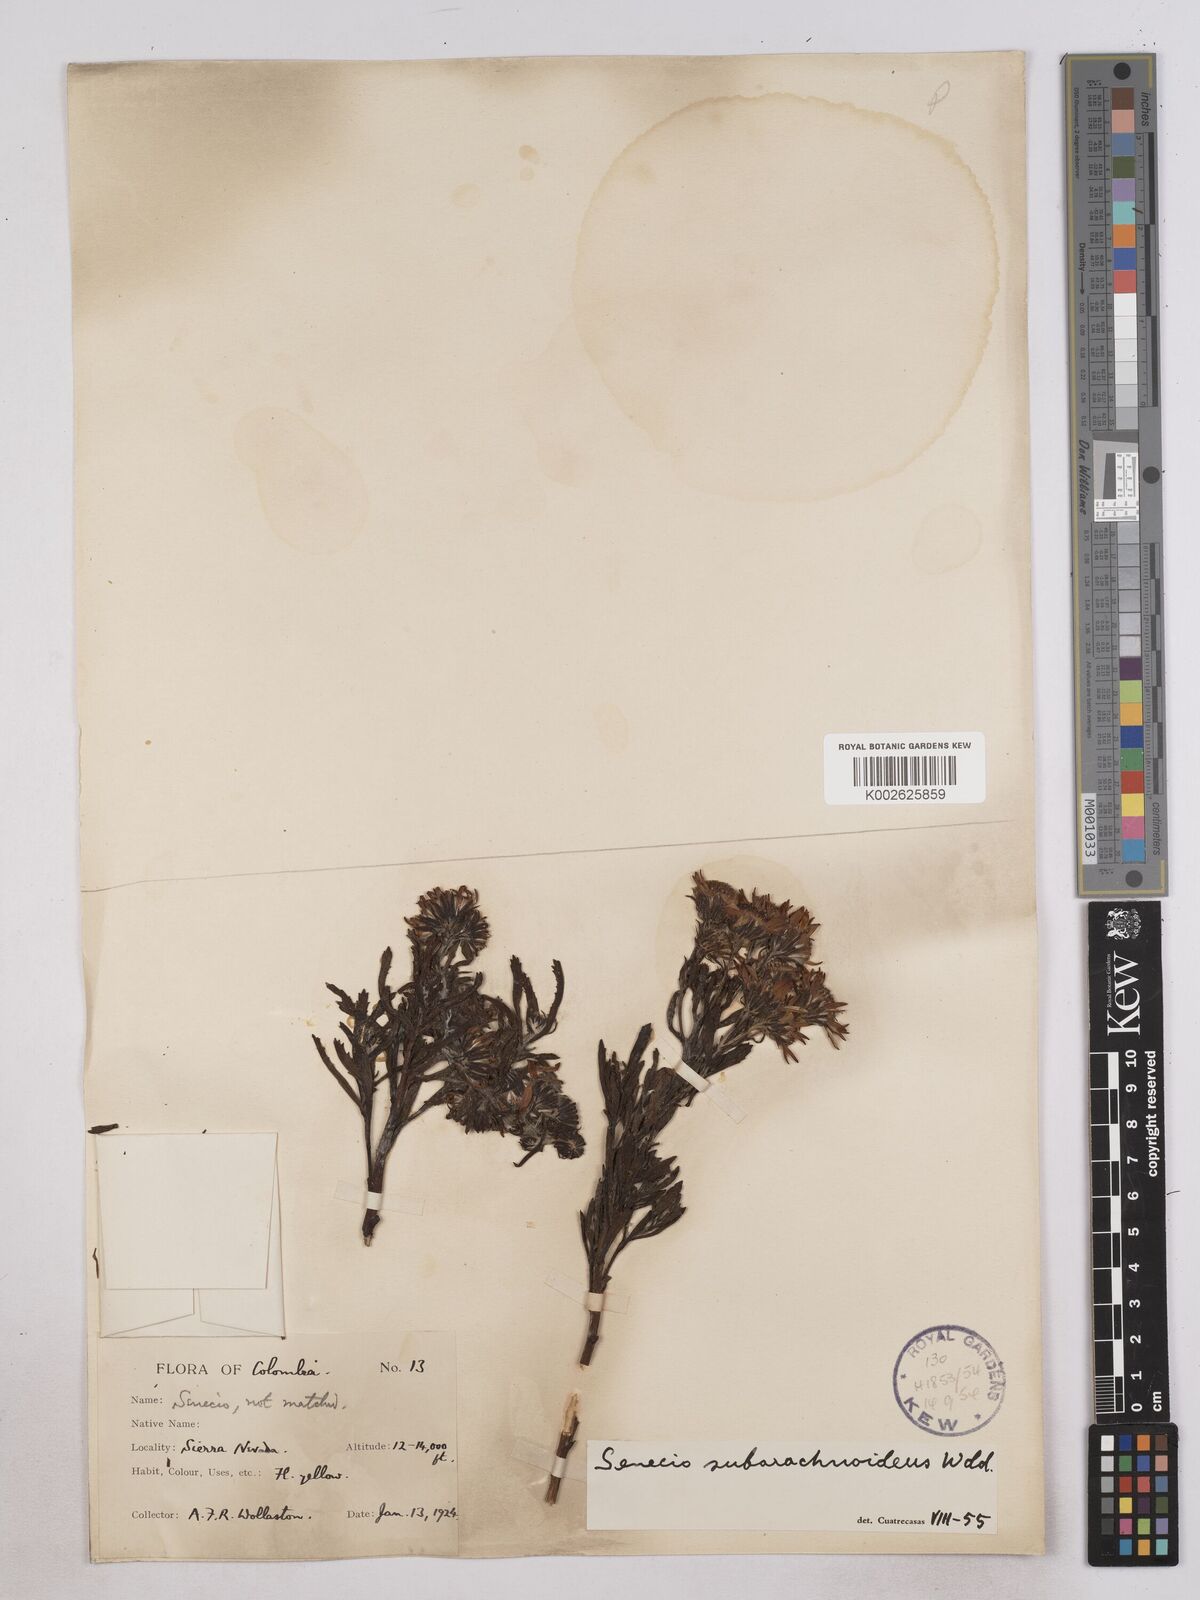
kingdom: Plantae
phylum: Tracheophyta
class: Magnoliopsida
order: Asterales
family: Asteraceae
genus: Monticalia
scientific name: Monticalia
